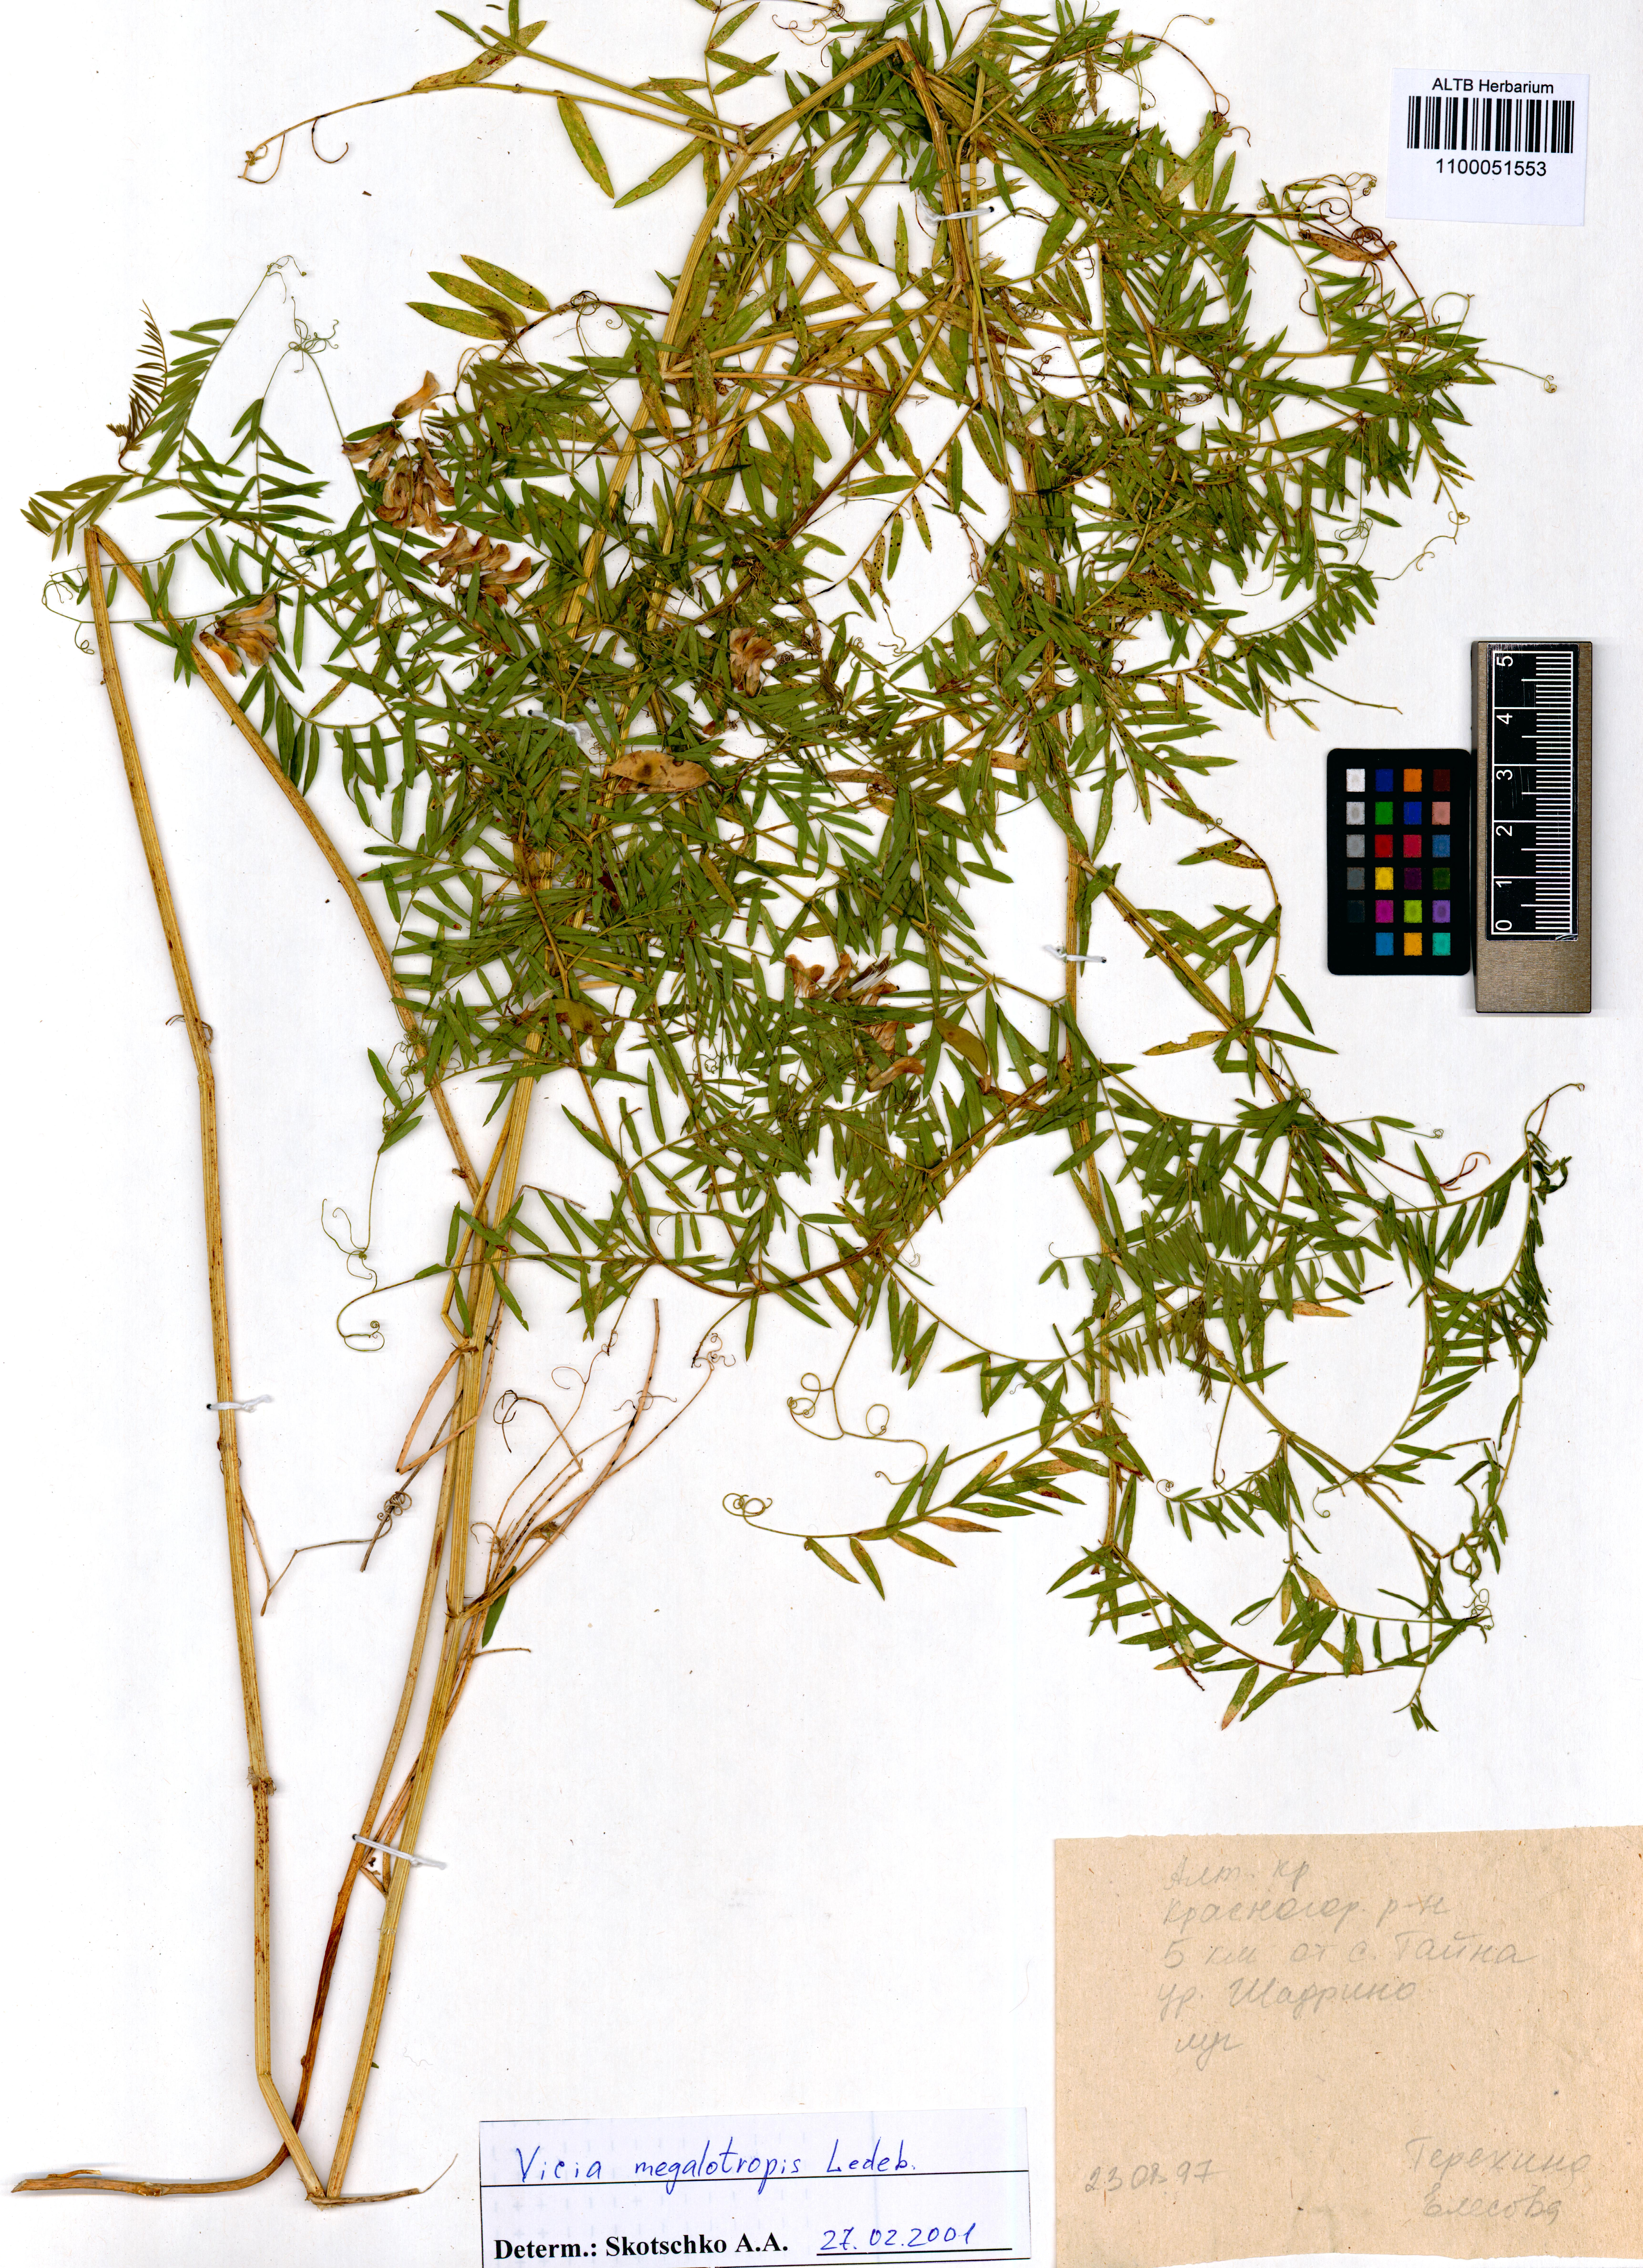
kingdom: Plantae
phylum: Tracheophyta
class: Magnoliopsida
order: Fabales
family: Fabaceae
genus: Vicia
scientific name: Vicia megalotropis
